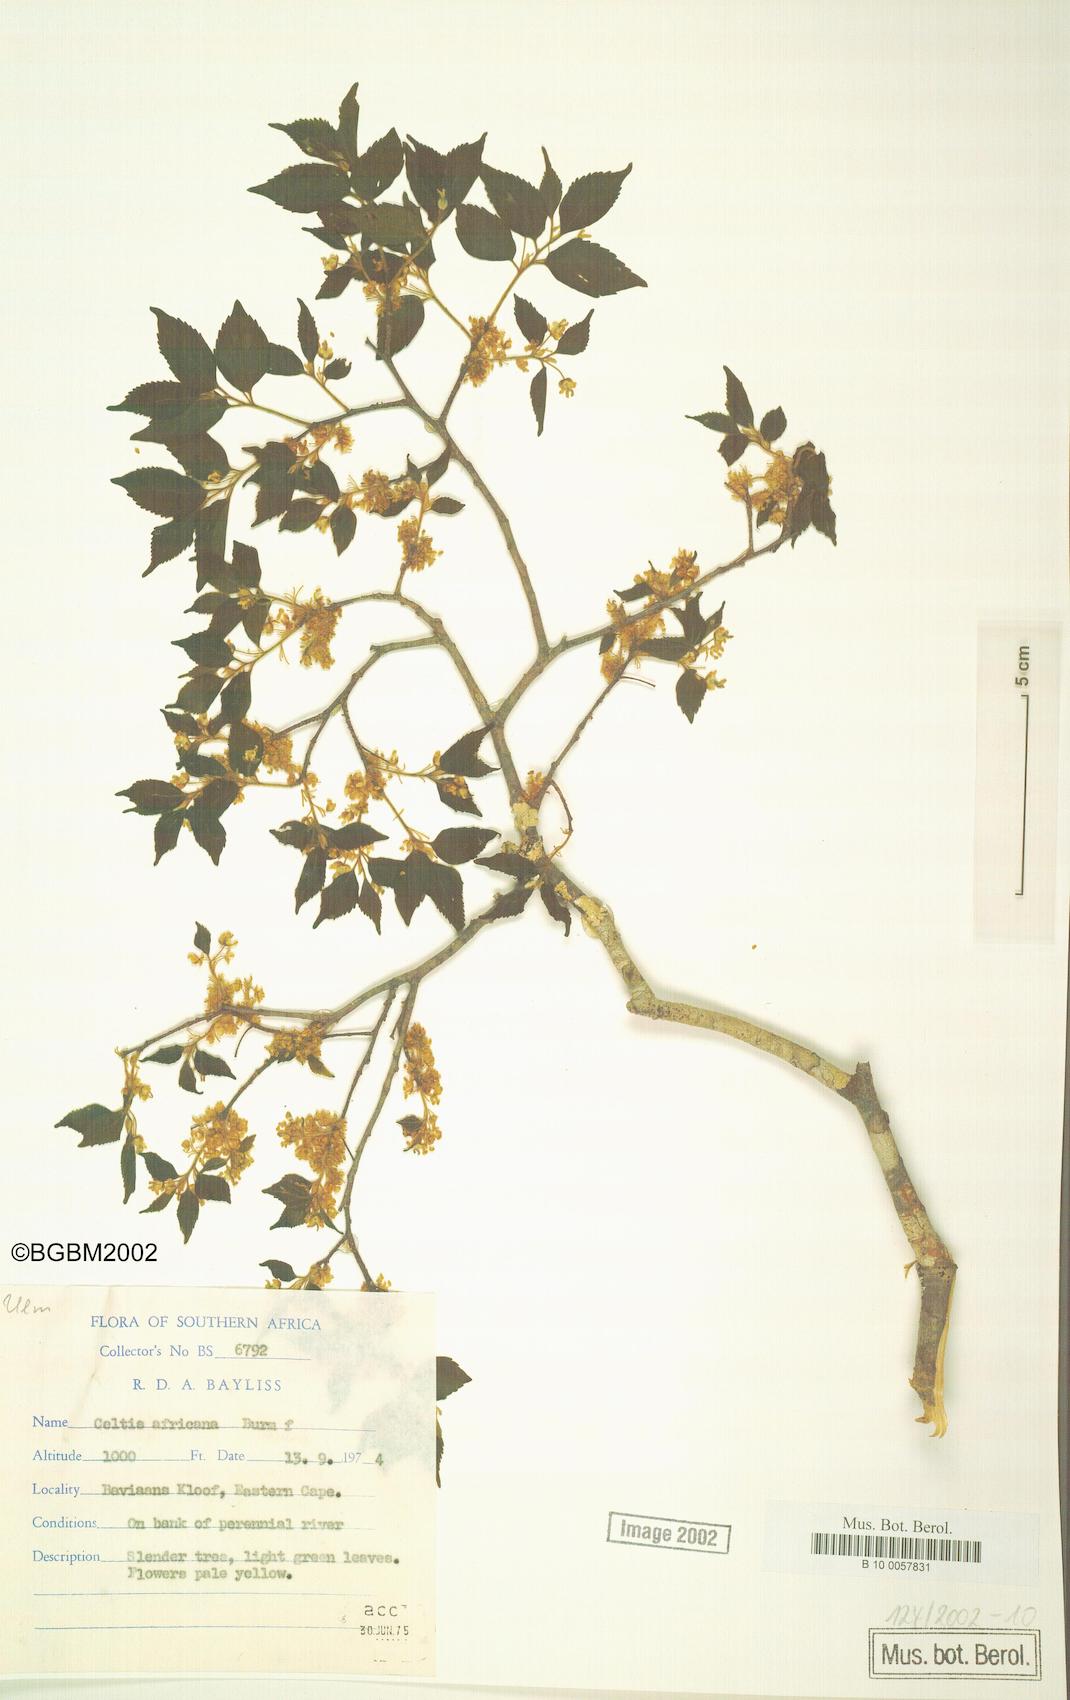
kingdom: Plantae
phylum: Tracheophyta
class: Magnoliopsida
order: Rosales
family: Cannabaceae
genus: Celtis
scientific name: Celtis africana
